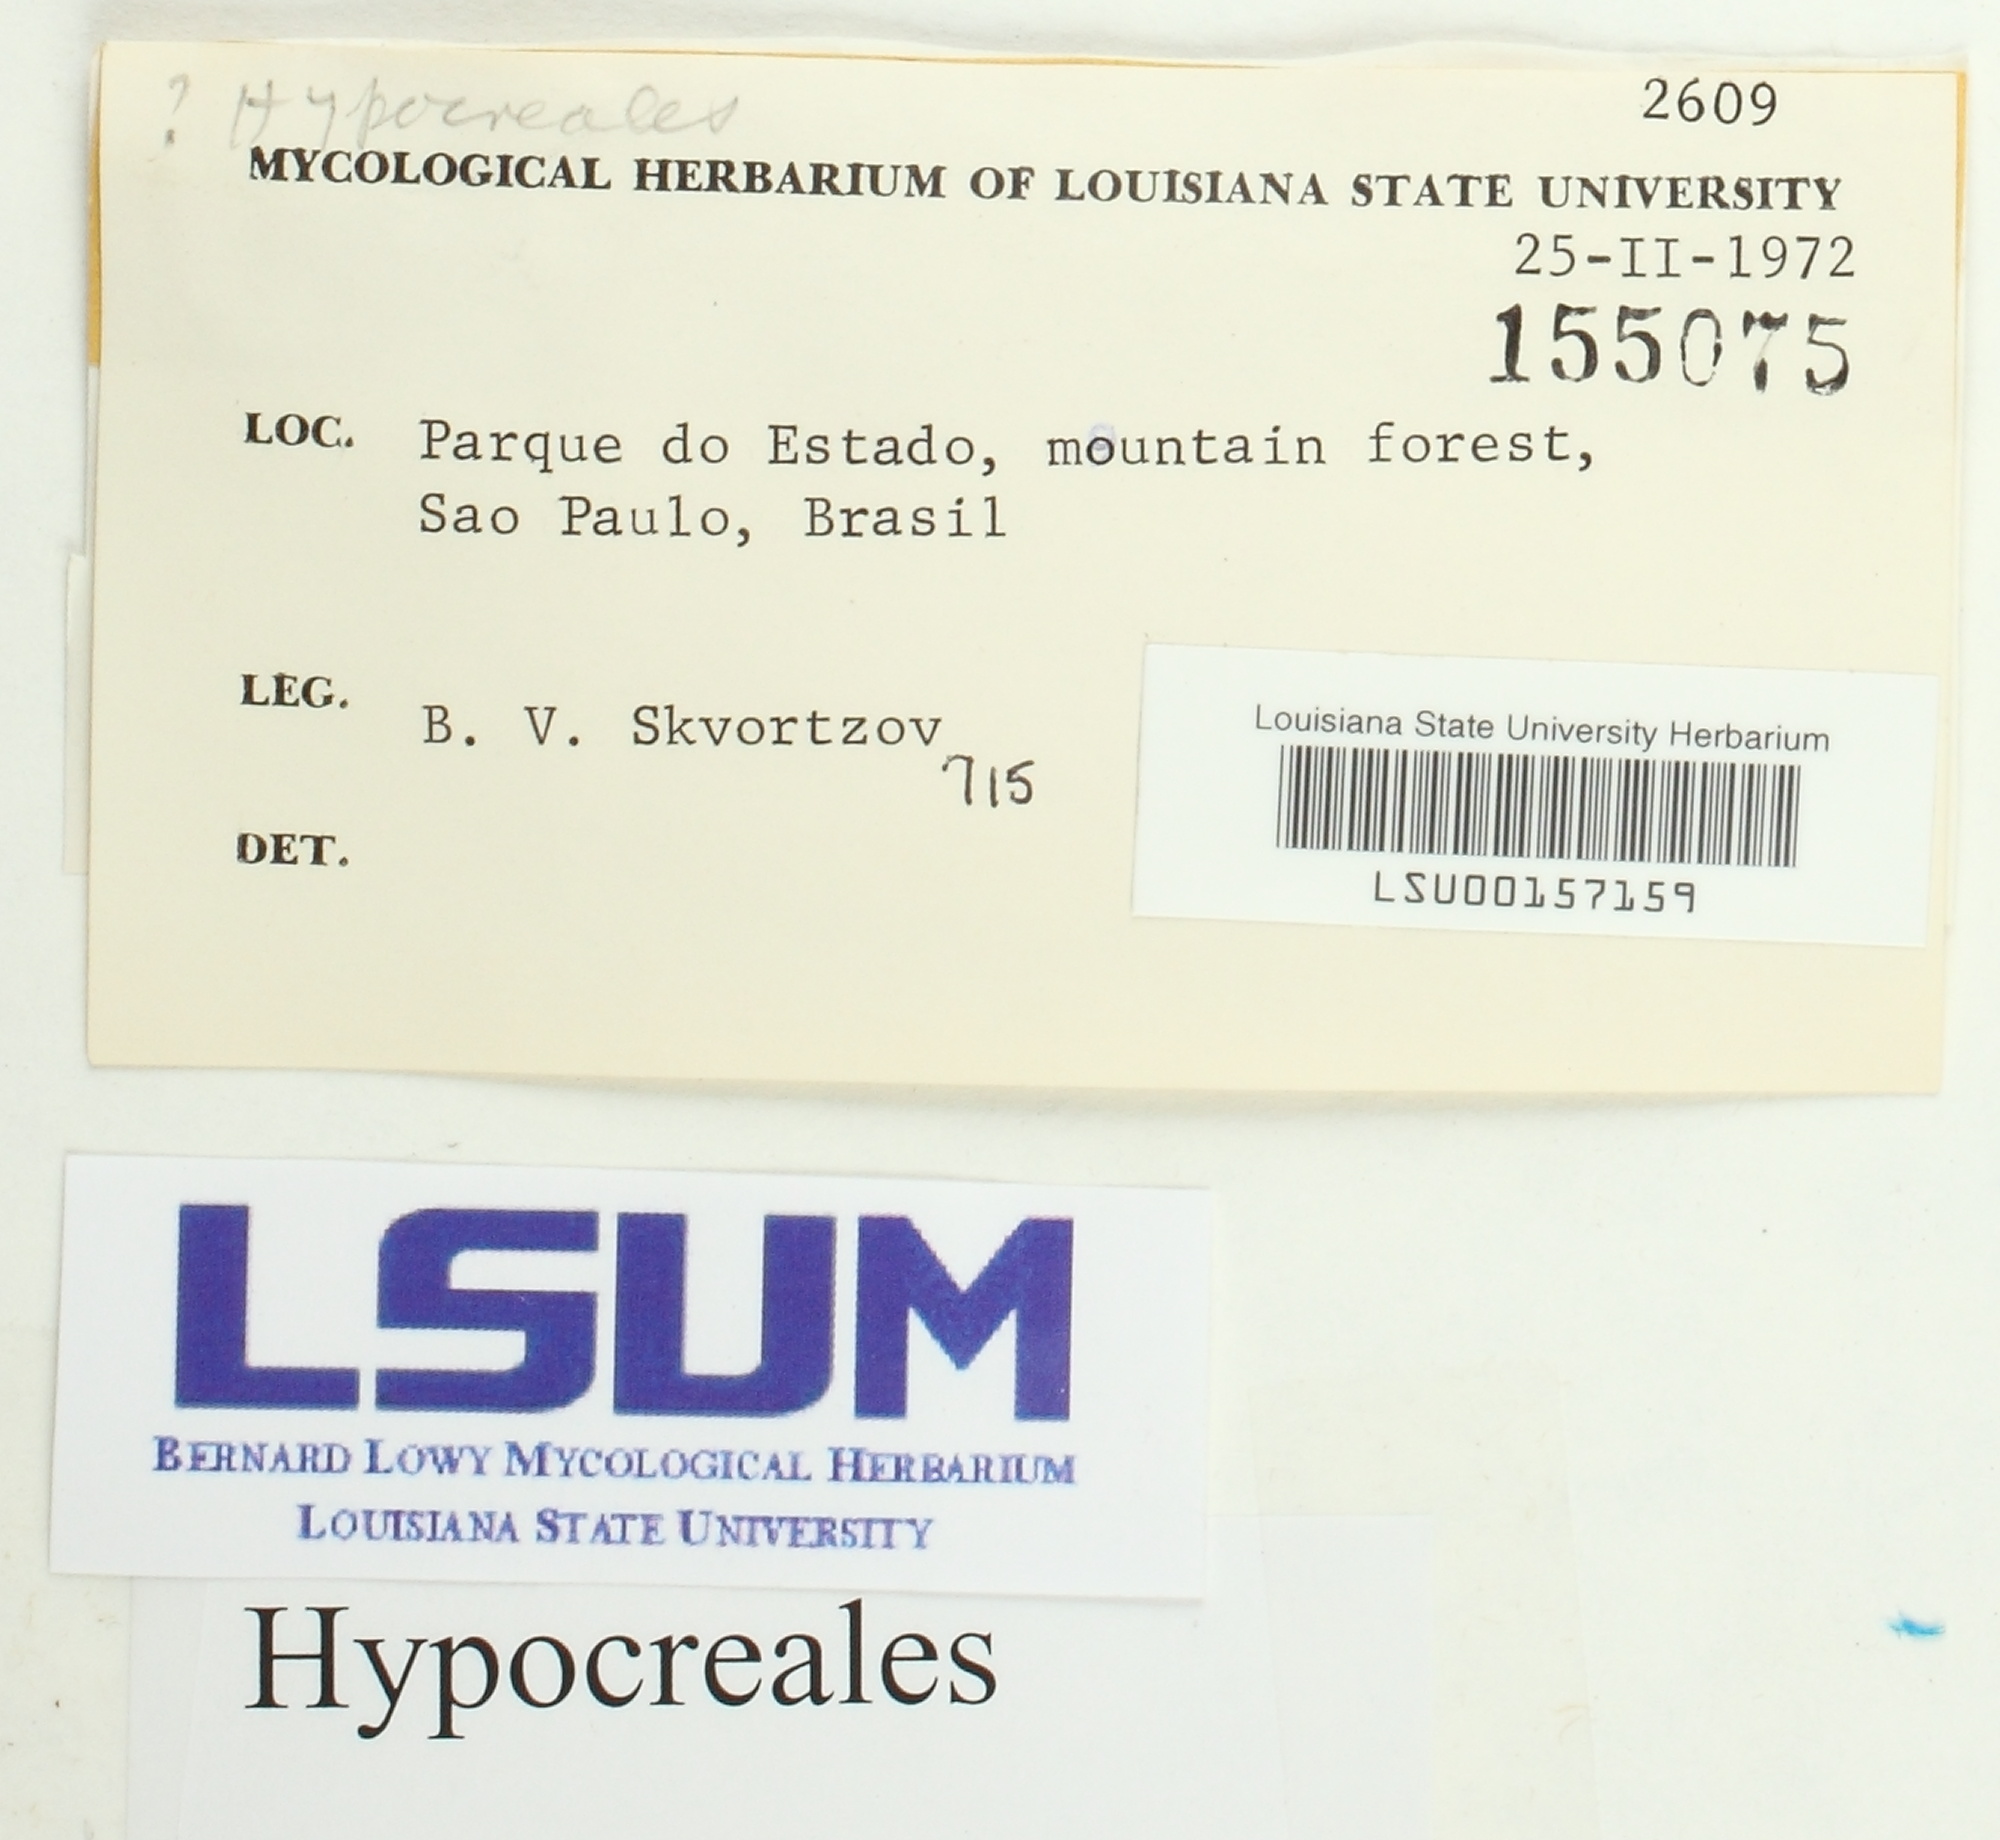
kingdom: Fungi
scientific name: Fungi
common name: Fungi
